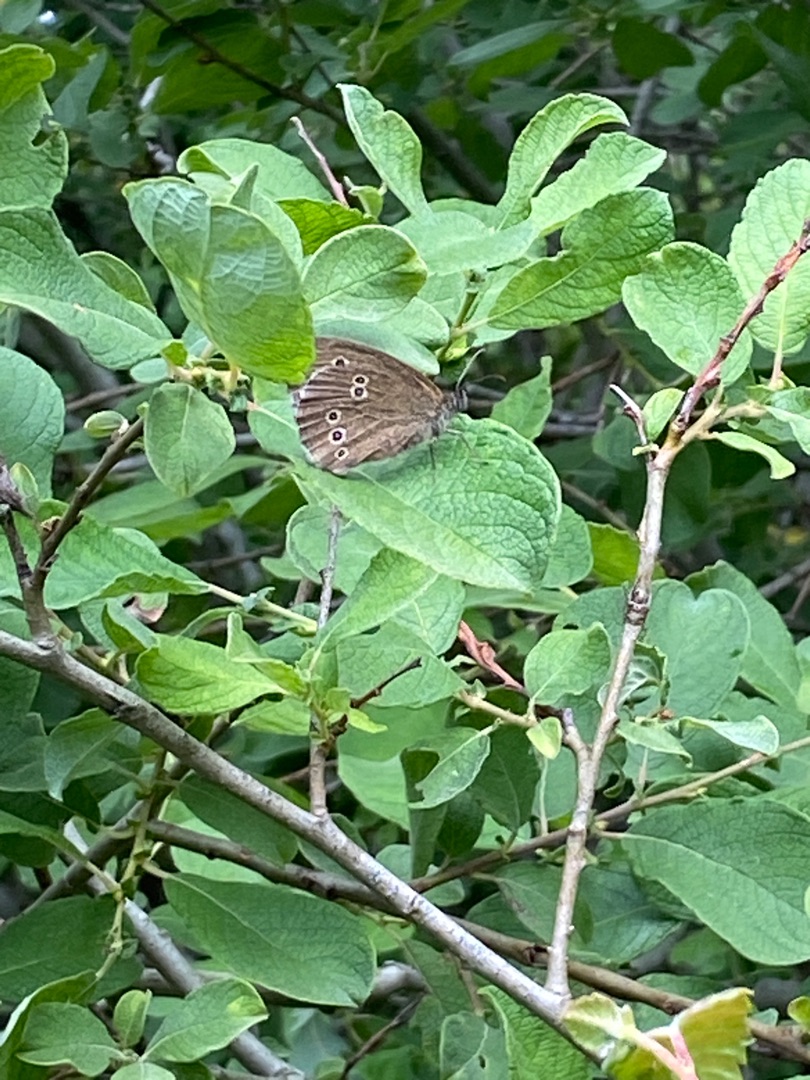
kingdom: Animalia
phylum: Arthropoda
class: Insecta
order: Lepidoptera
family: Nymphalidae
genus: Aphantopus
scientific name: Aphantopus hyperantus
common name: Engrandøje
